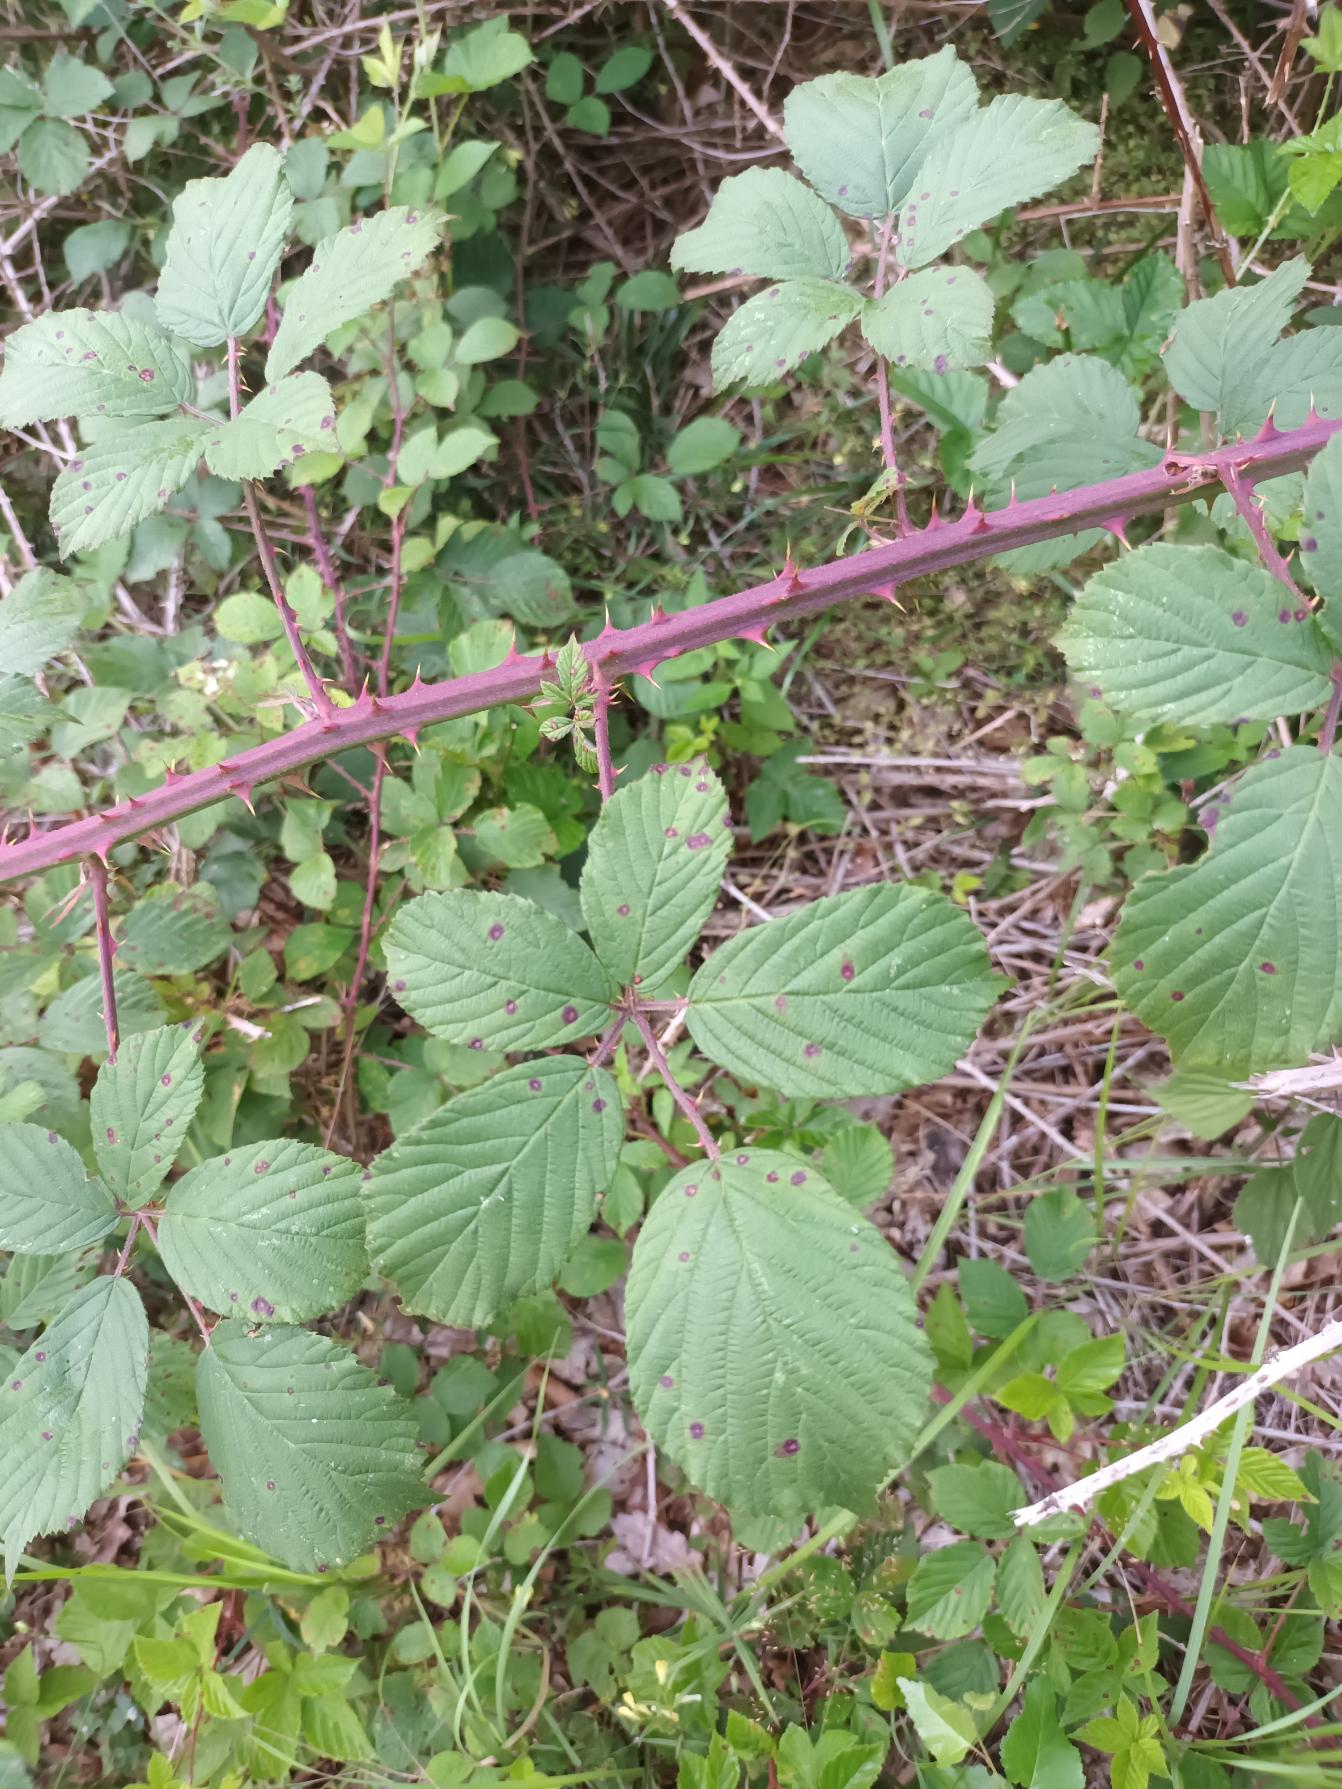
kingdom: Plantae
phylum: Tracheophyta
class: Magnoliopsida
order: Rosales
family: Rosaceae
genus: Rubus
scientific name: Rubus lindebergii
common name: Lindebergs brombær
